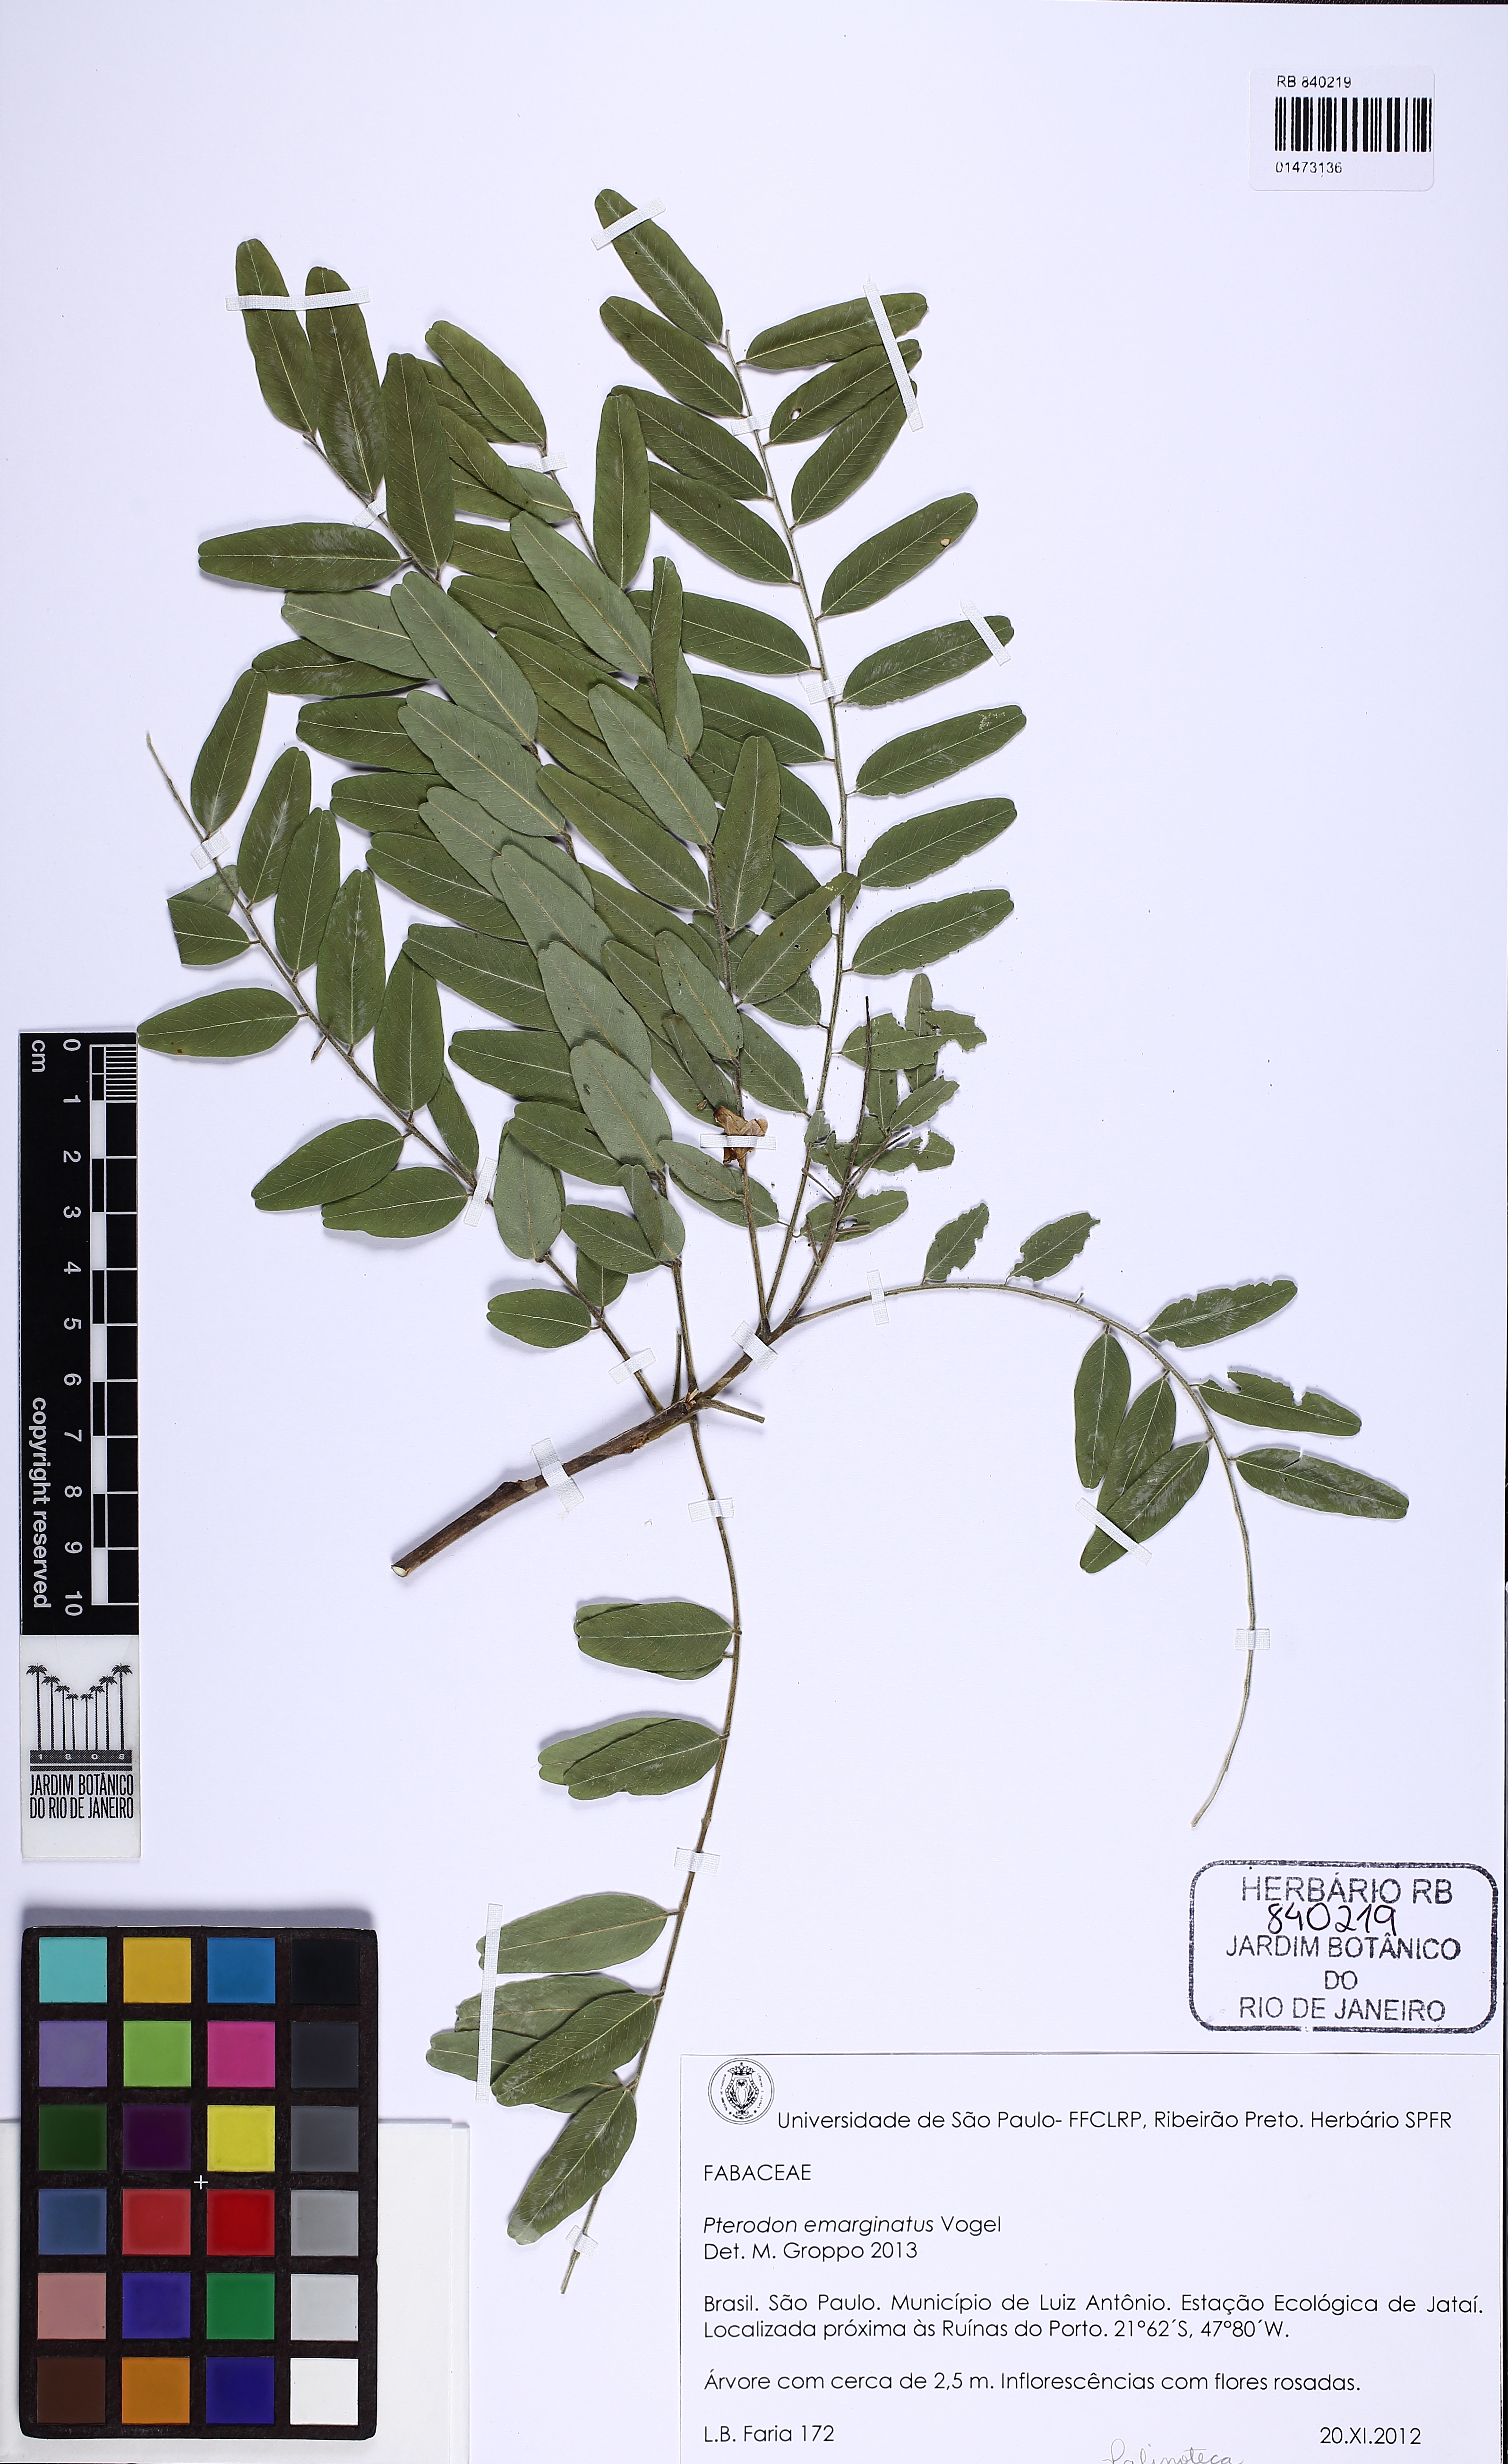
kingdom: Plantae
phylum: Tracheophyta
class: Magnoliopsida
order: Fabales
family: Fabaceae
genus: Pterodon
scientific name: Pterodon emarginatus
